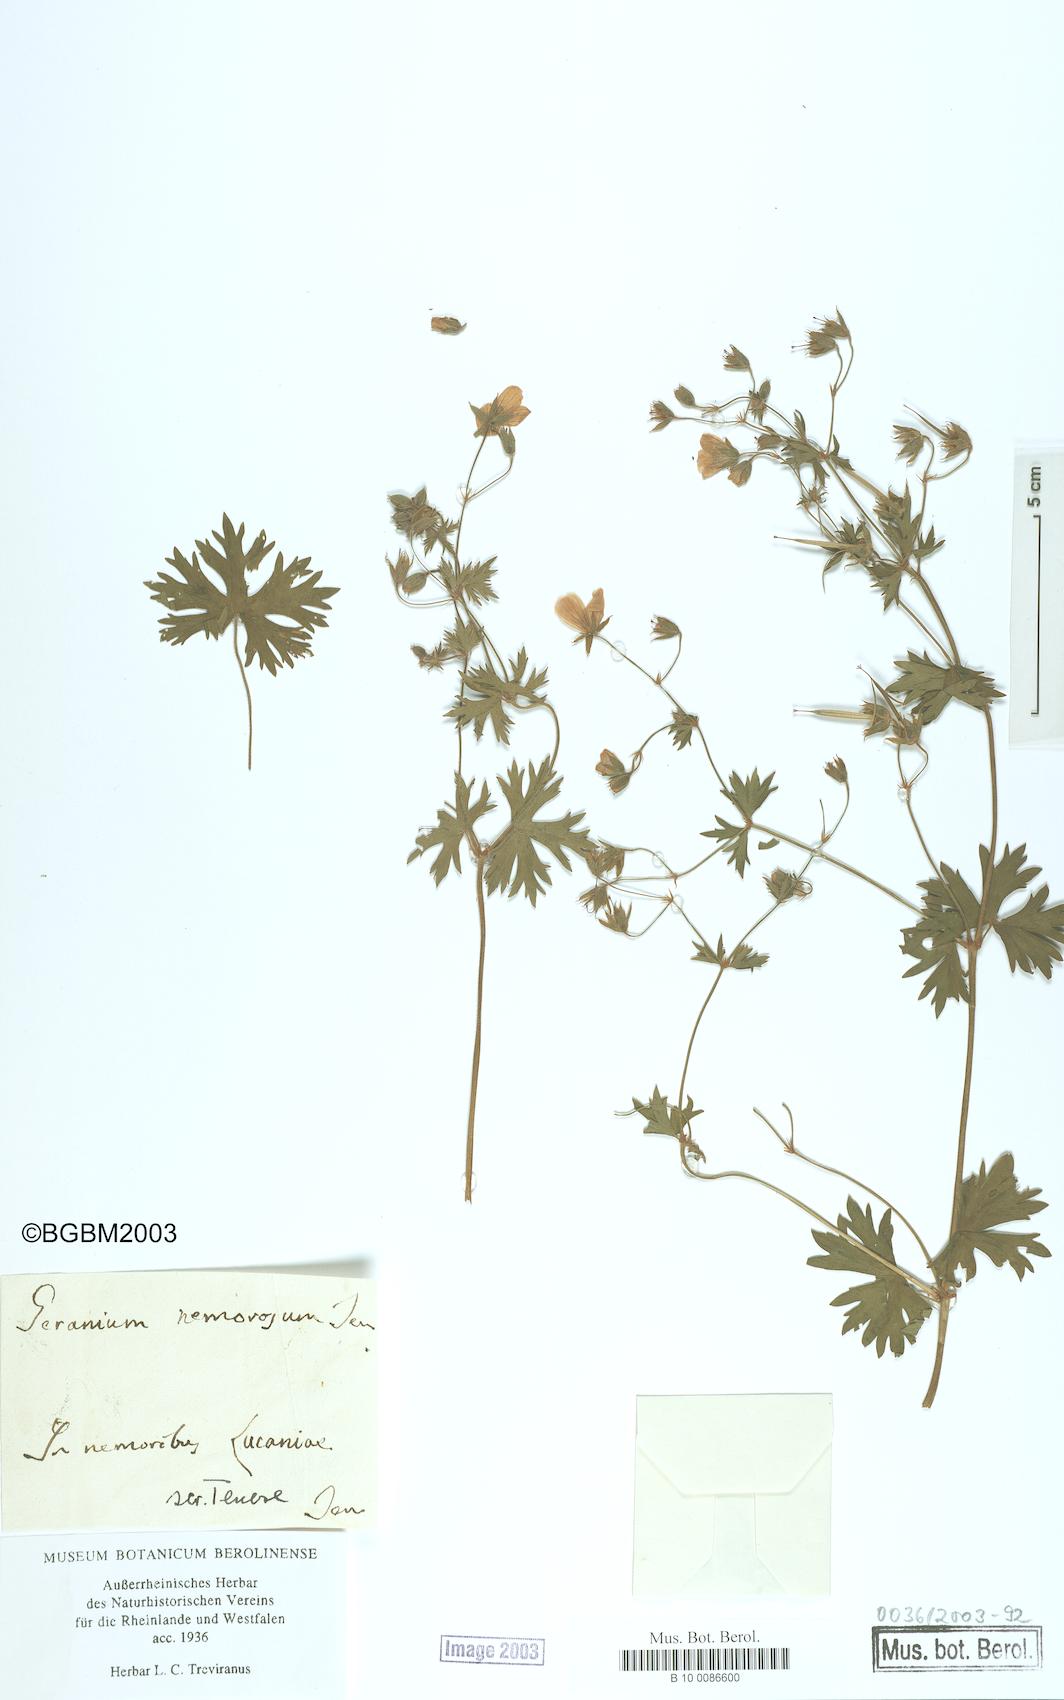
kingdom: Plantae
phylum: Tracheophyta
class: Magnoliopsida
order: Geraniales
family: Geraniaceae
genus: Geranium
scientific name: Geranium asphodeloides
